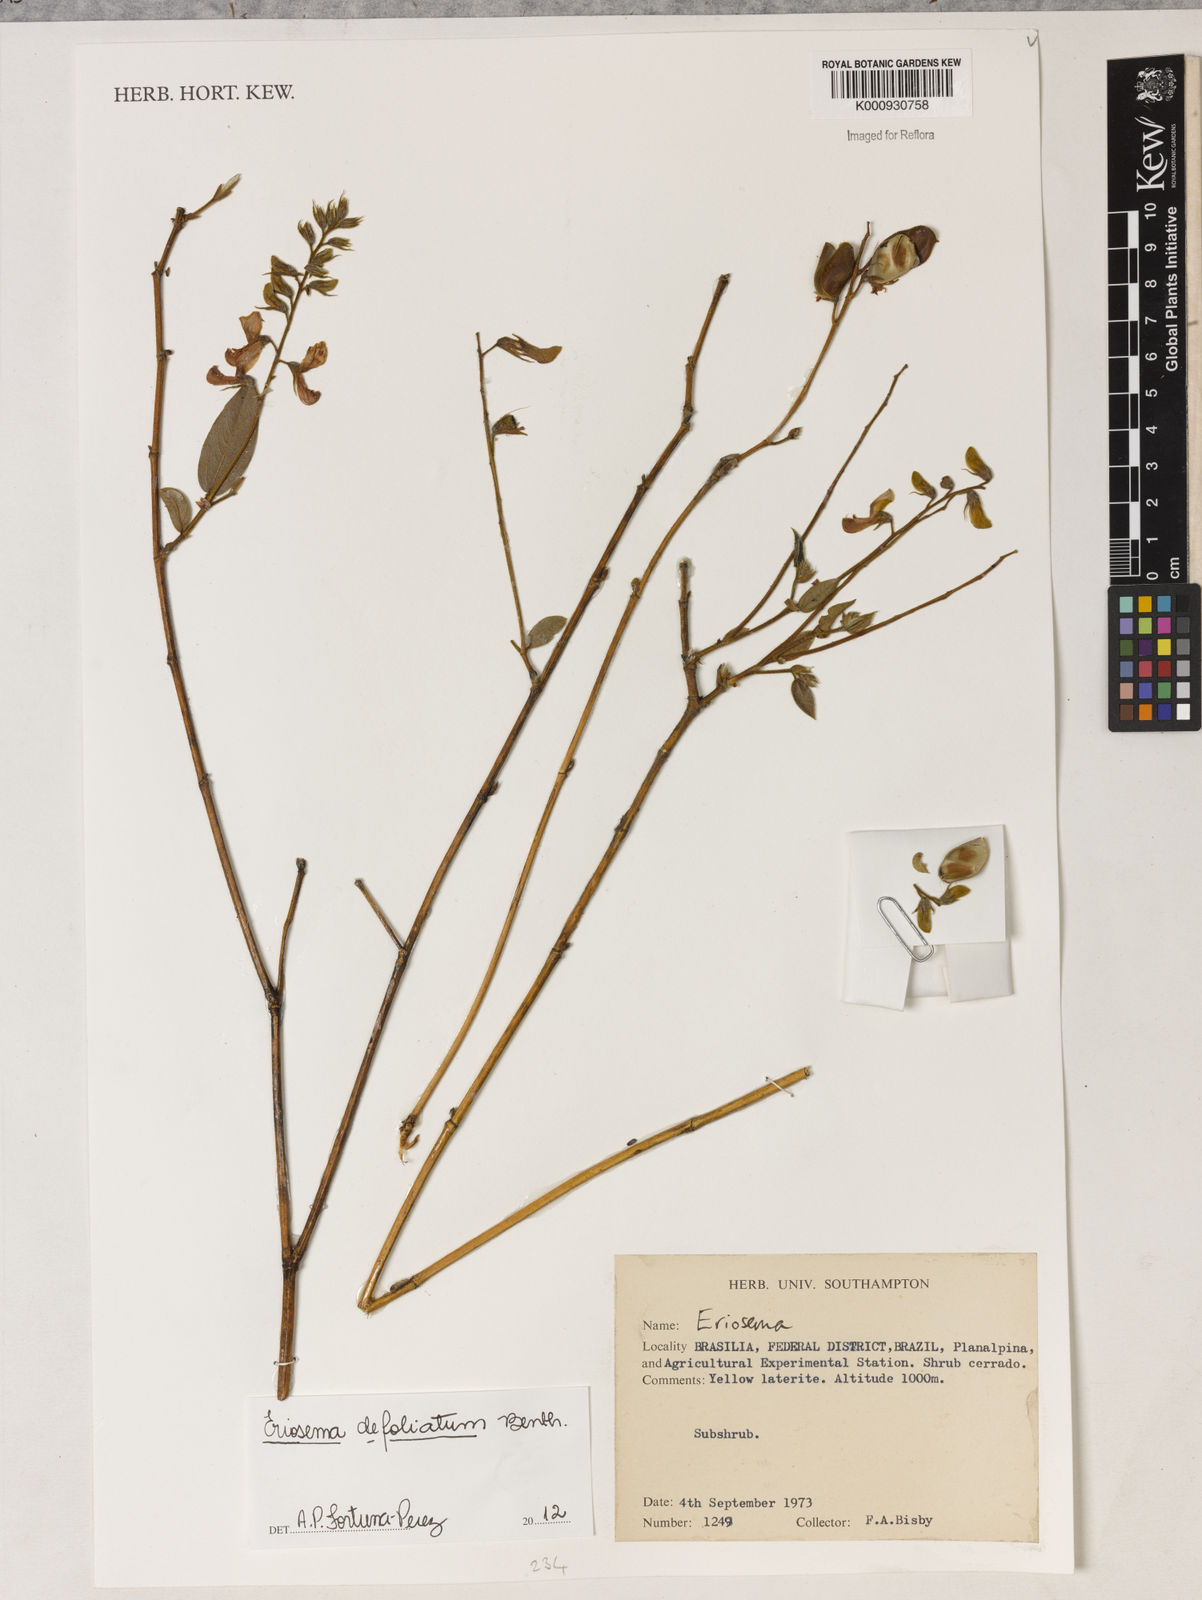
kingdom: Plantae
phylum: Tracheophyta
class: Magnoliopsida
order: Fabales
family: Fabaceae
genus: Eriosema
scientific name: Eriosema defoliatum
